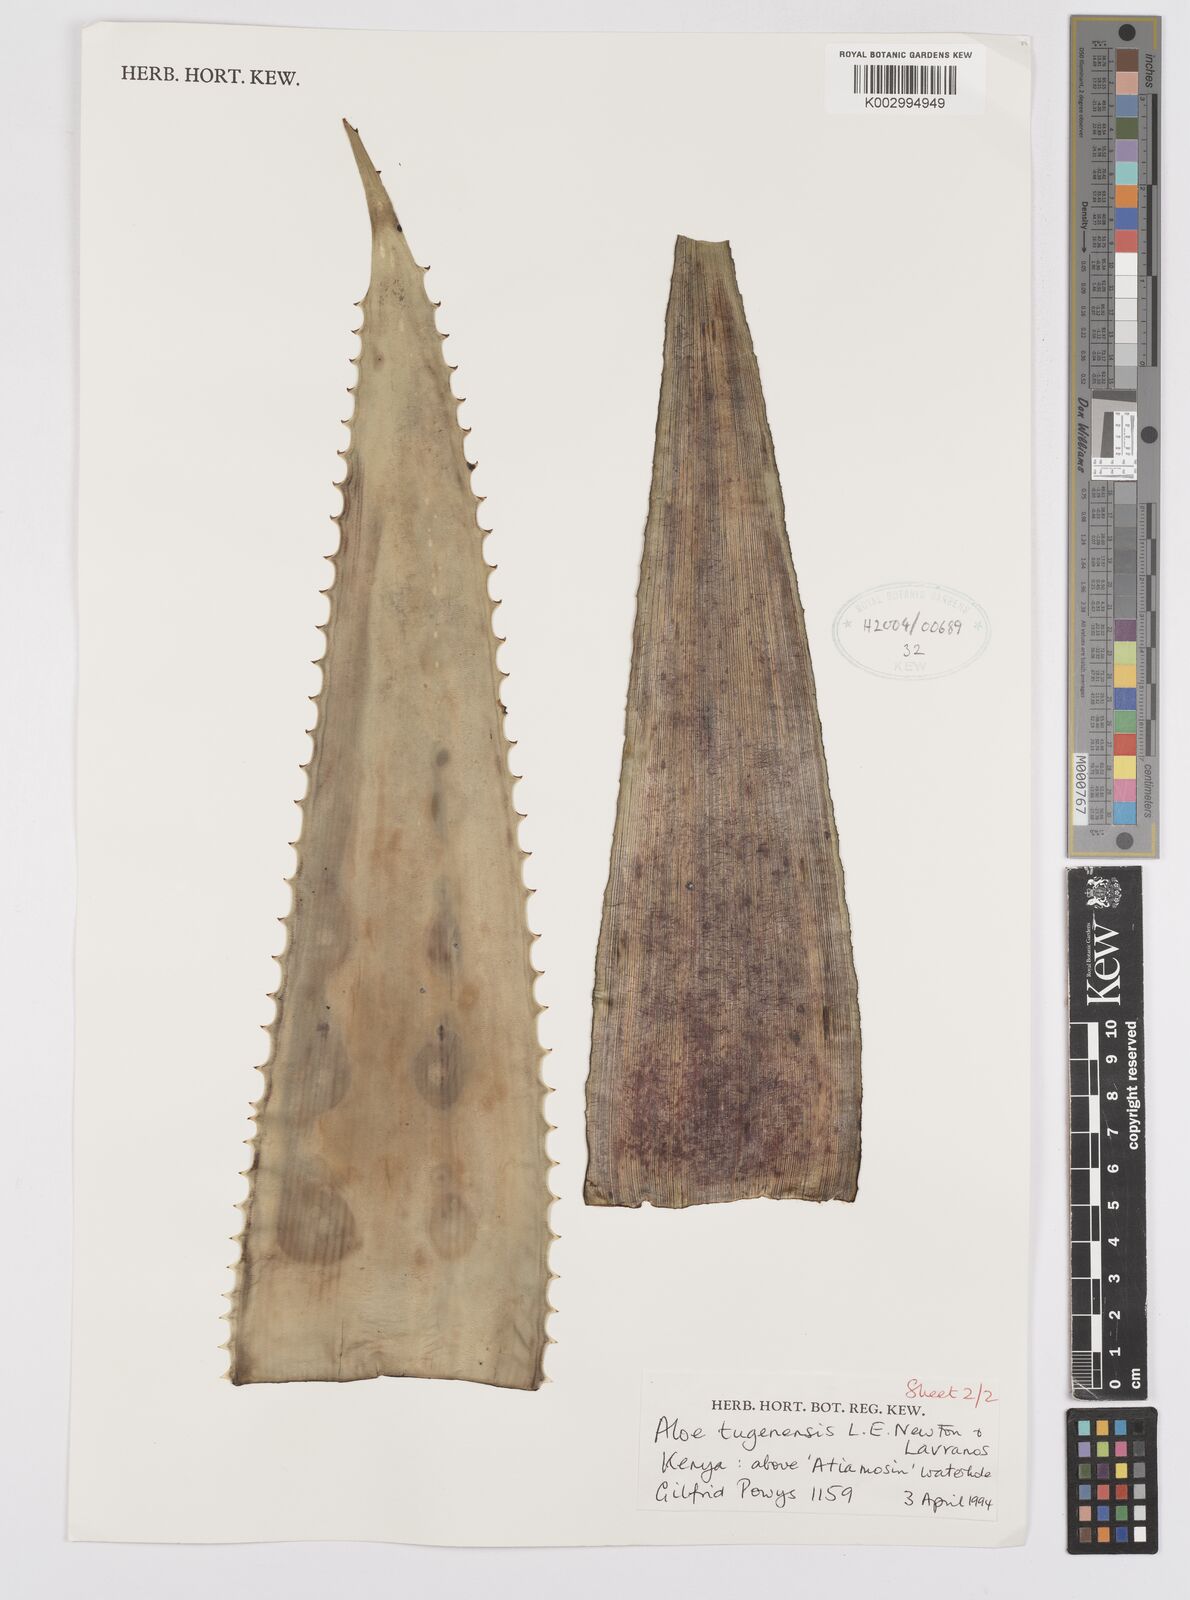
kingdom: Plantae
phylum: Tracheophyta
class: Liliopsida
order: Asparagales
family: Asphodelaceae
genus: Aloe
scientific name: Aloe archeri
